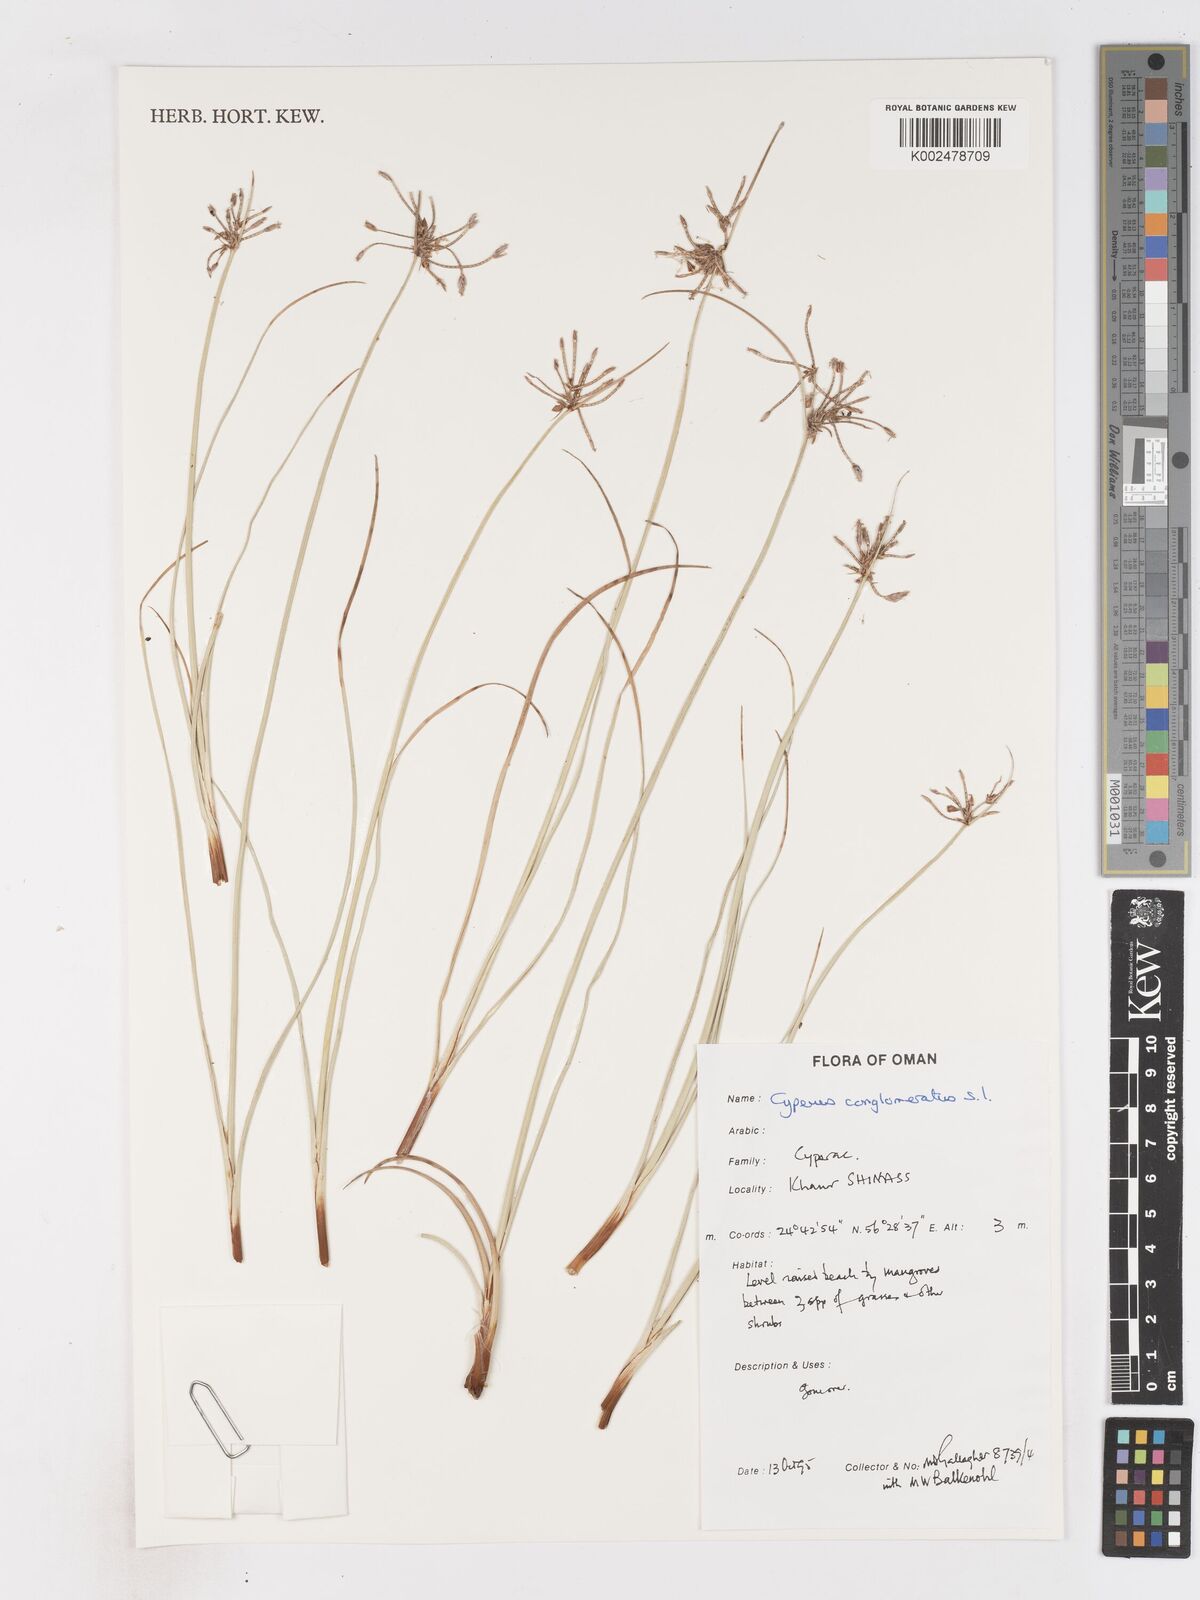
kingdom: Plantae
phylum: Tracheophyta
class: Liliopsida
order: Poales
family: Cyperaceae
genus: Cyperus
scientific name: Cyperus conglomeratus
